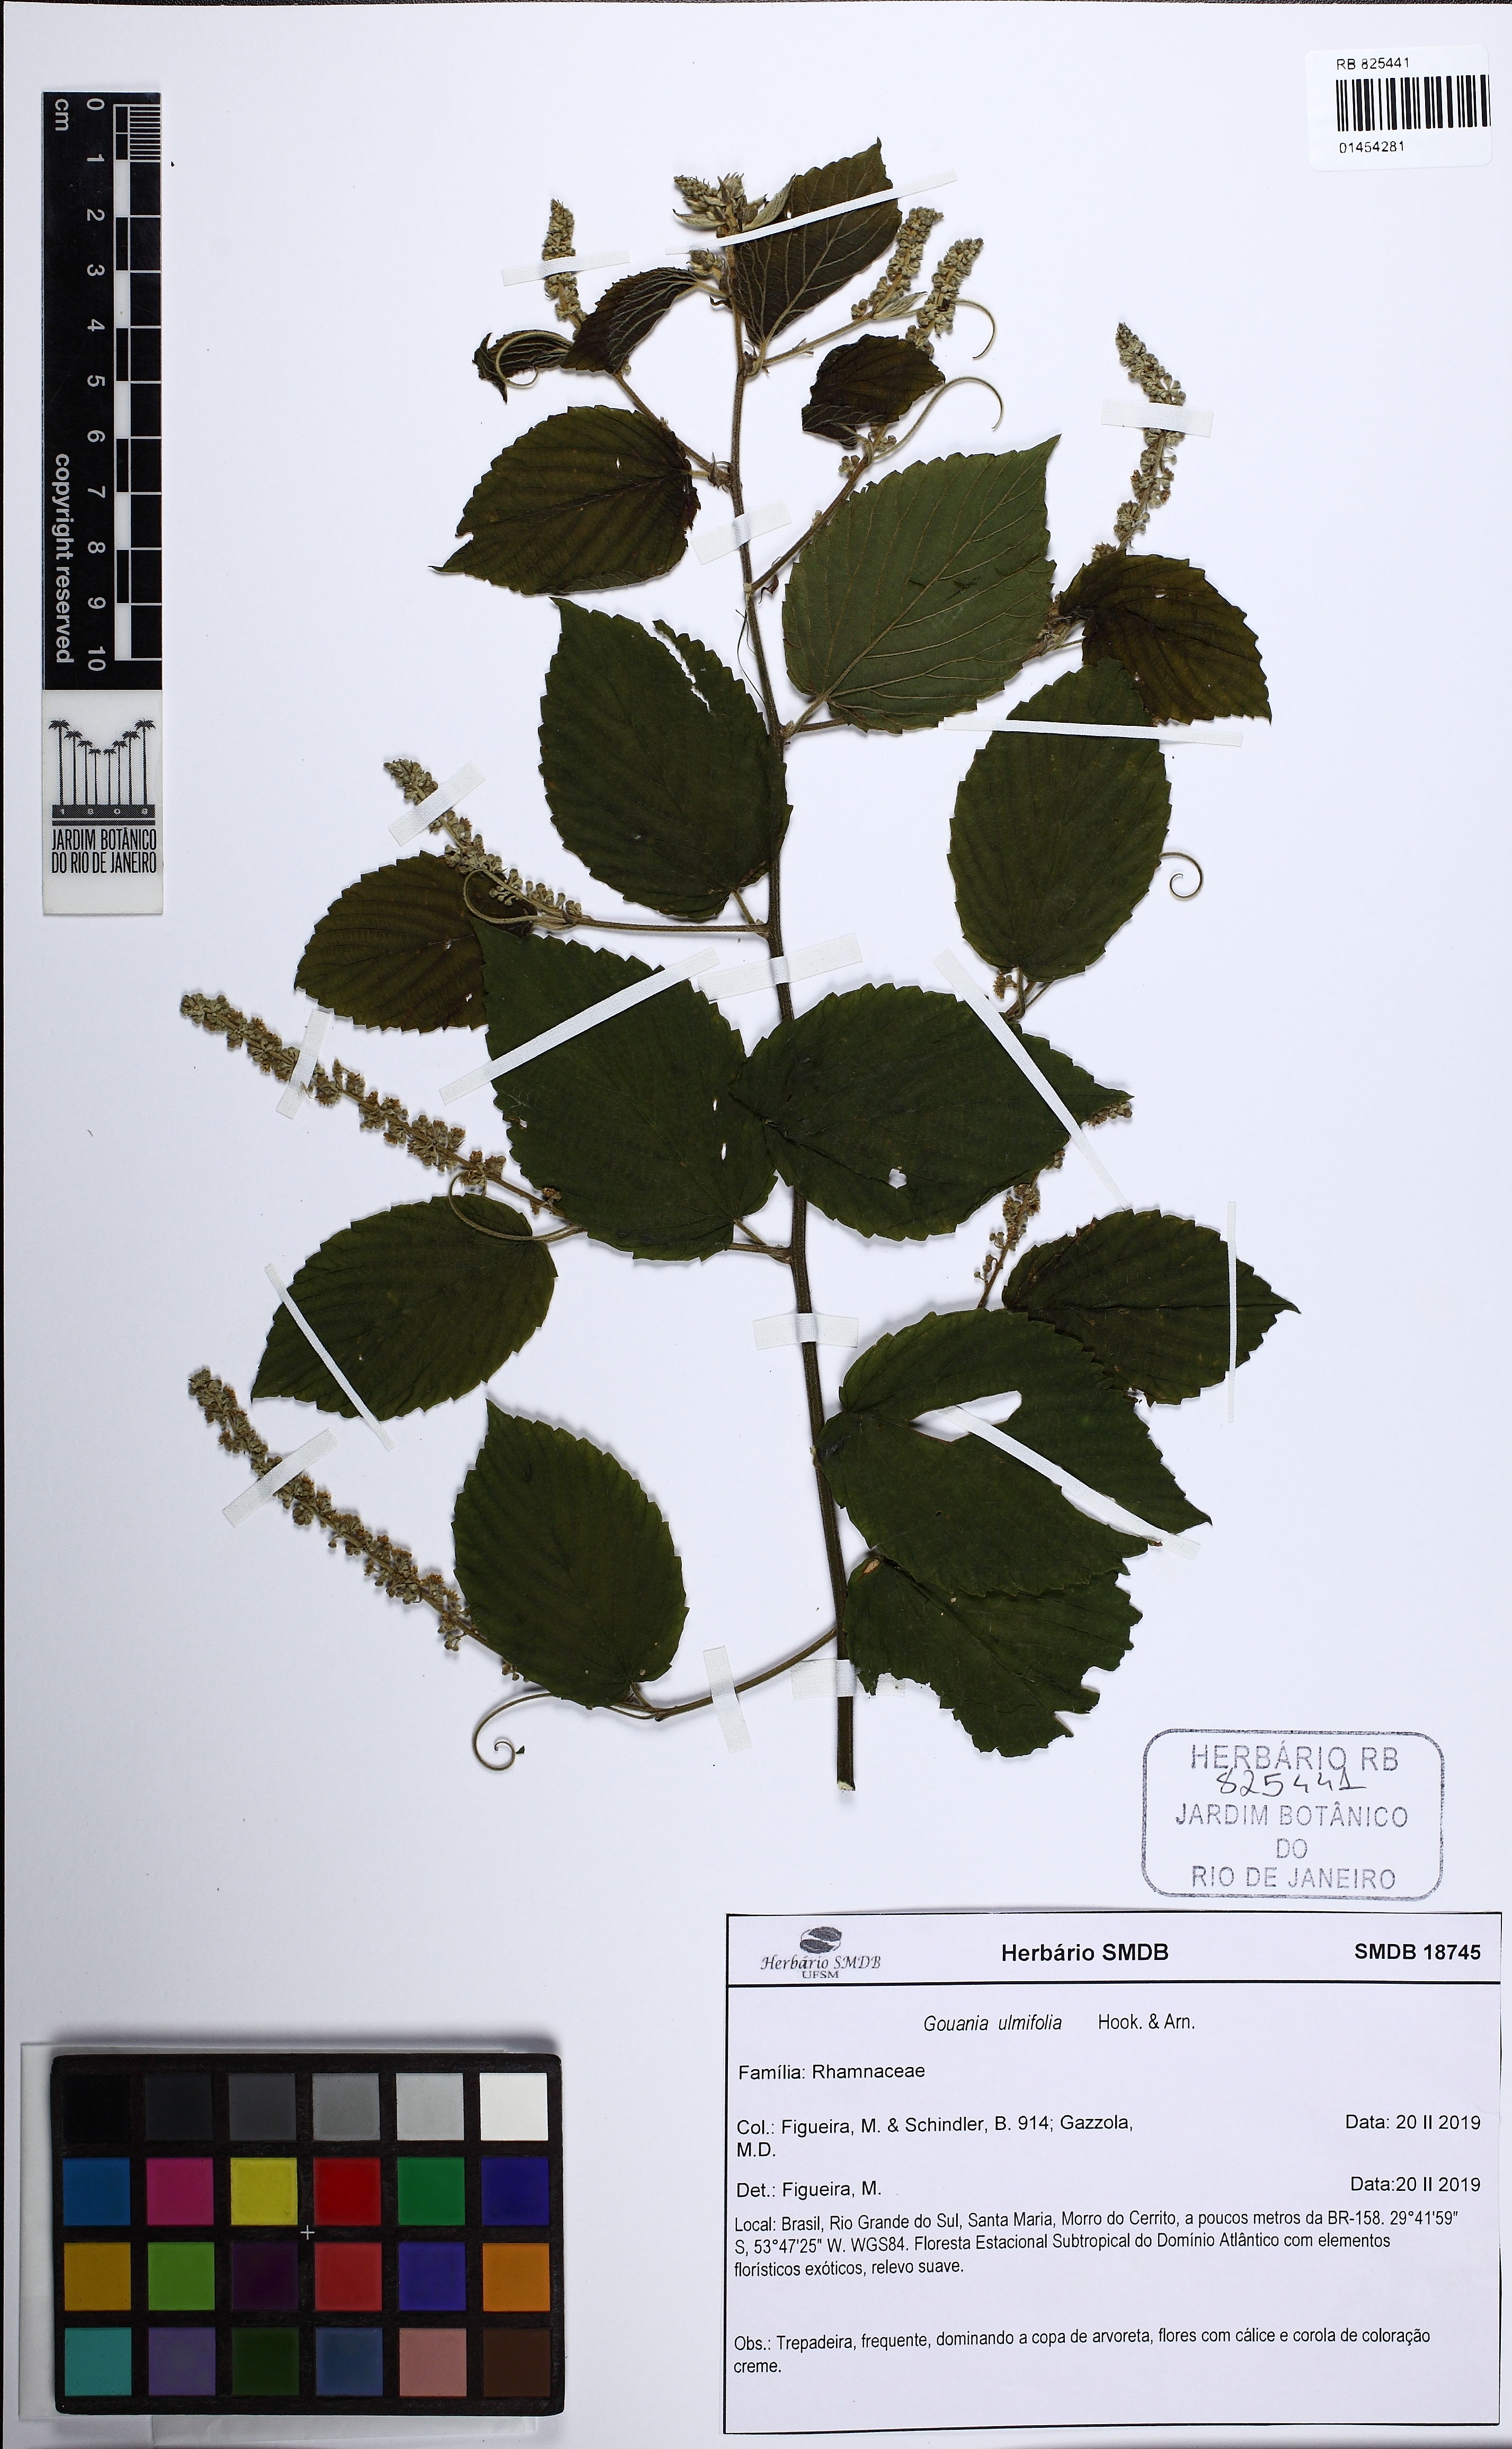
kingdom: Plantae
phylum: Tracheophyta
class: Magnoliopsida
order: Rosales
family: Rhamnaceae
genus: Gouania
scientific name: Gouania ulmifolia
